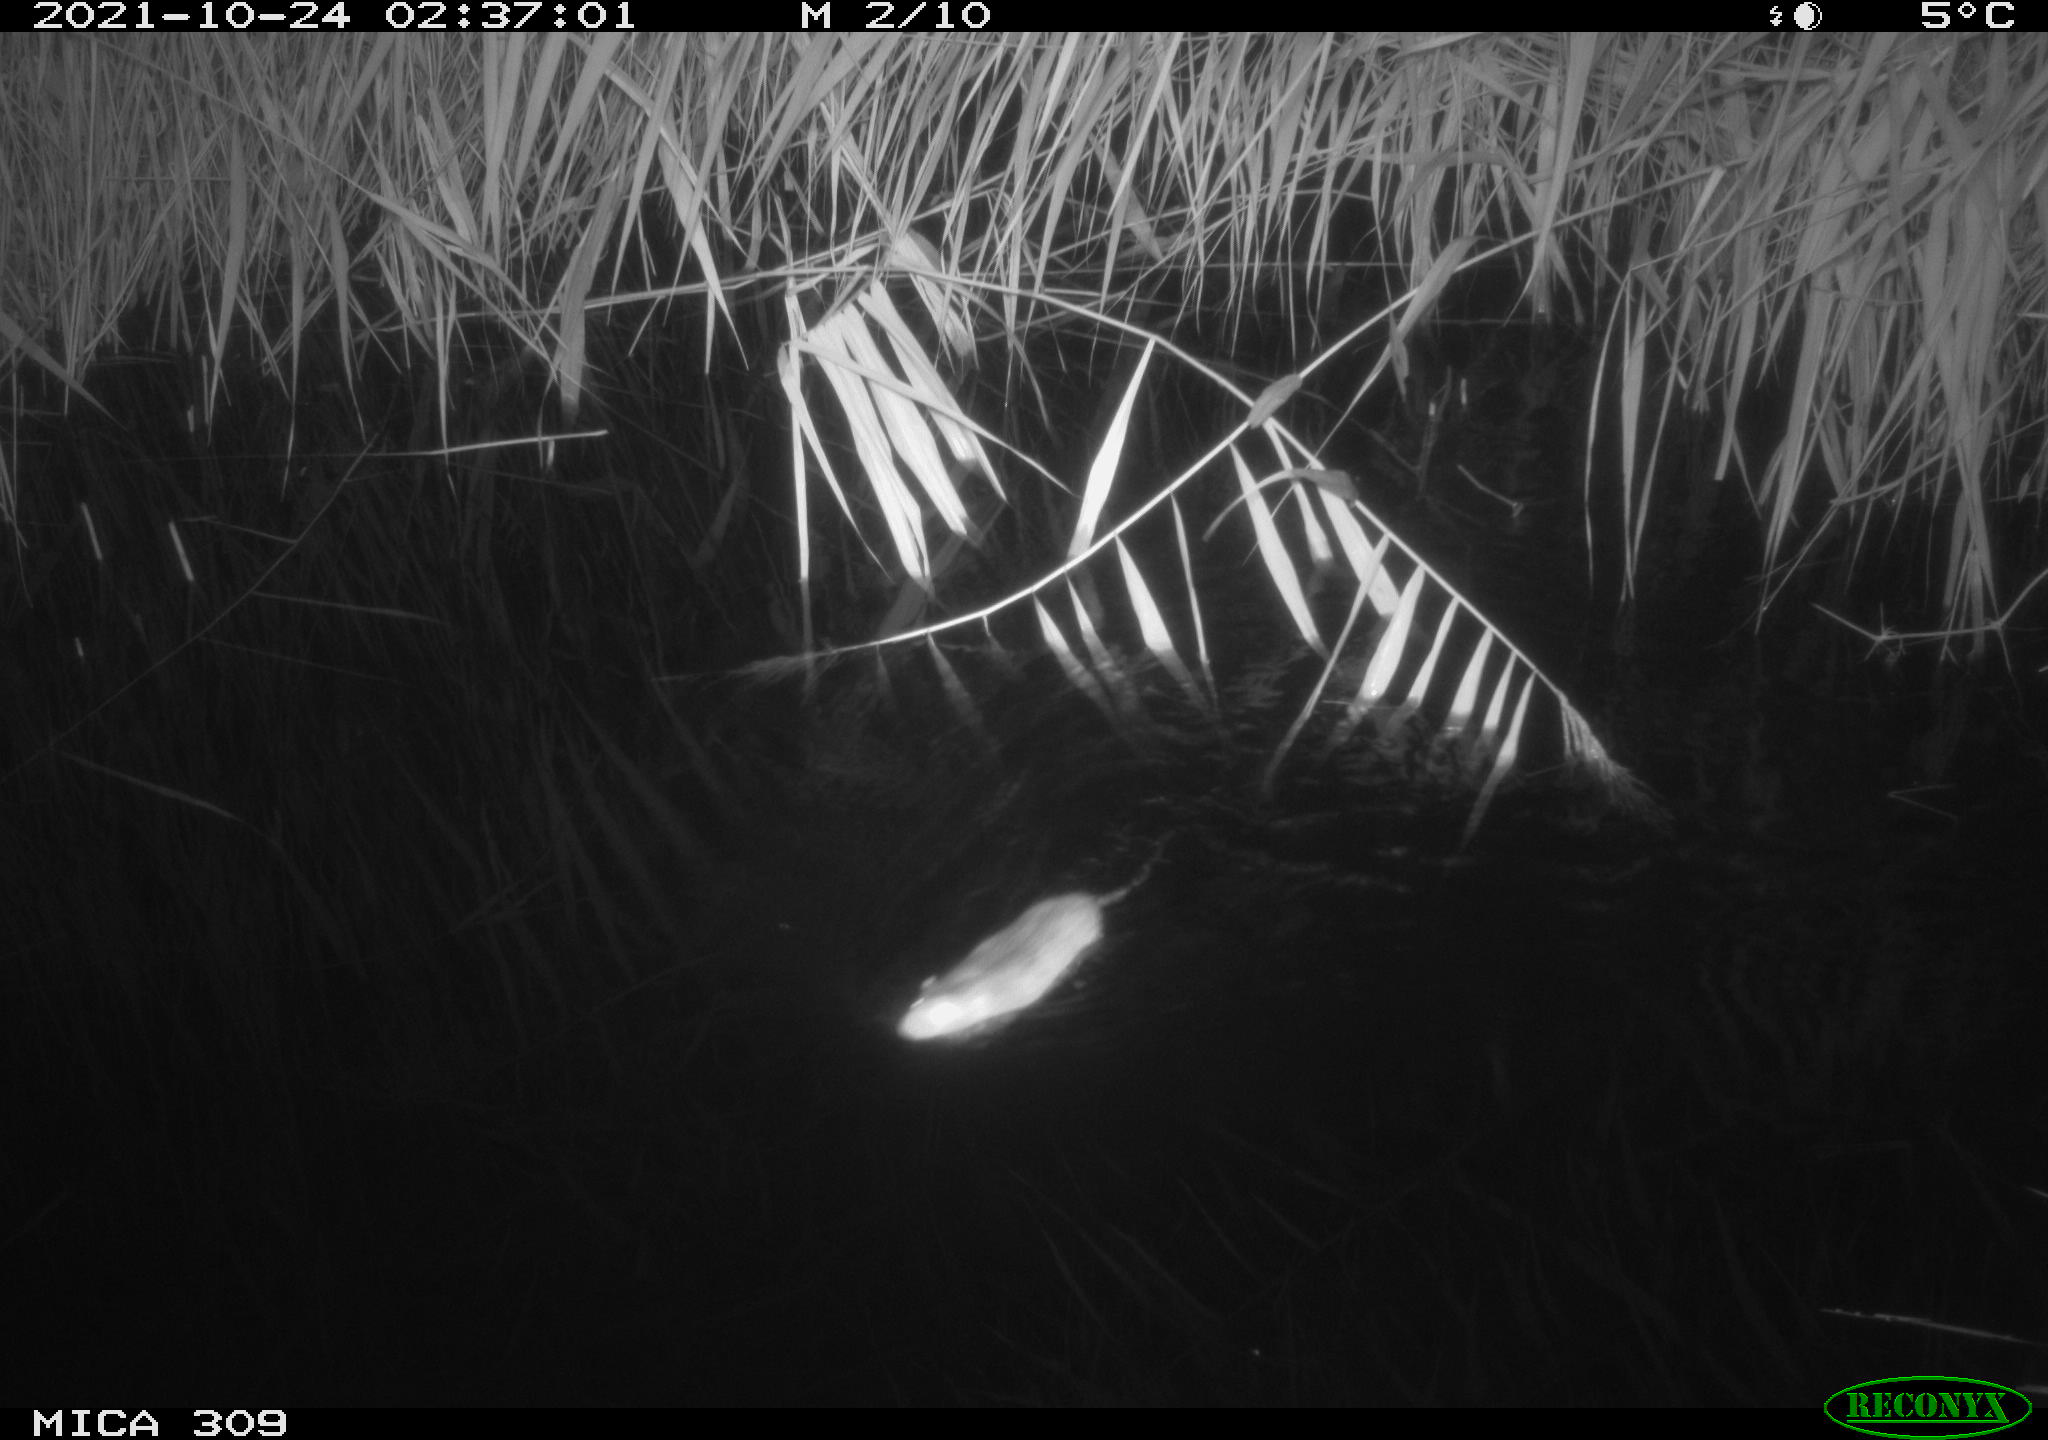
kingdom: Animalia
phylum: Chordata
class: Mammalia
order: Rodentia
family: Muridae
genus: Rattus
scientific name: Rattus norvegicus
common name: Brown rat
